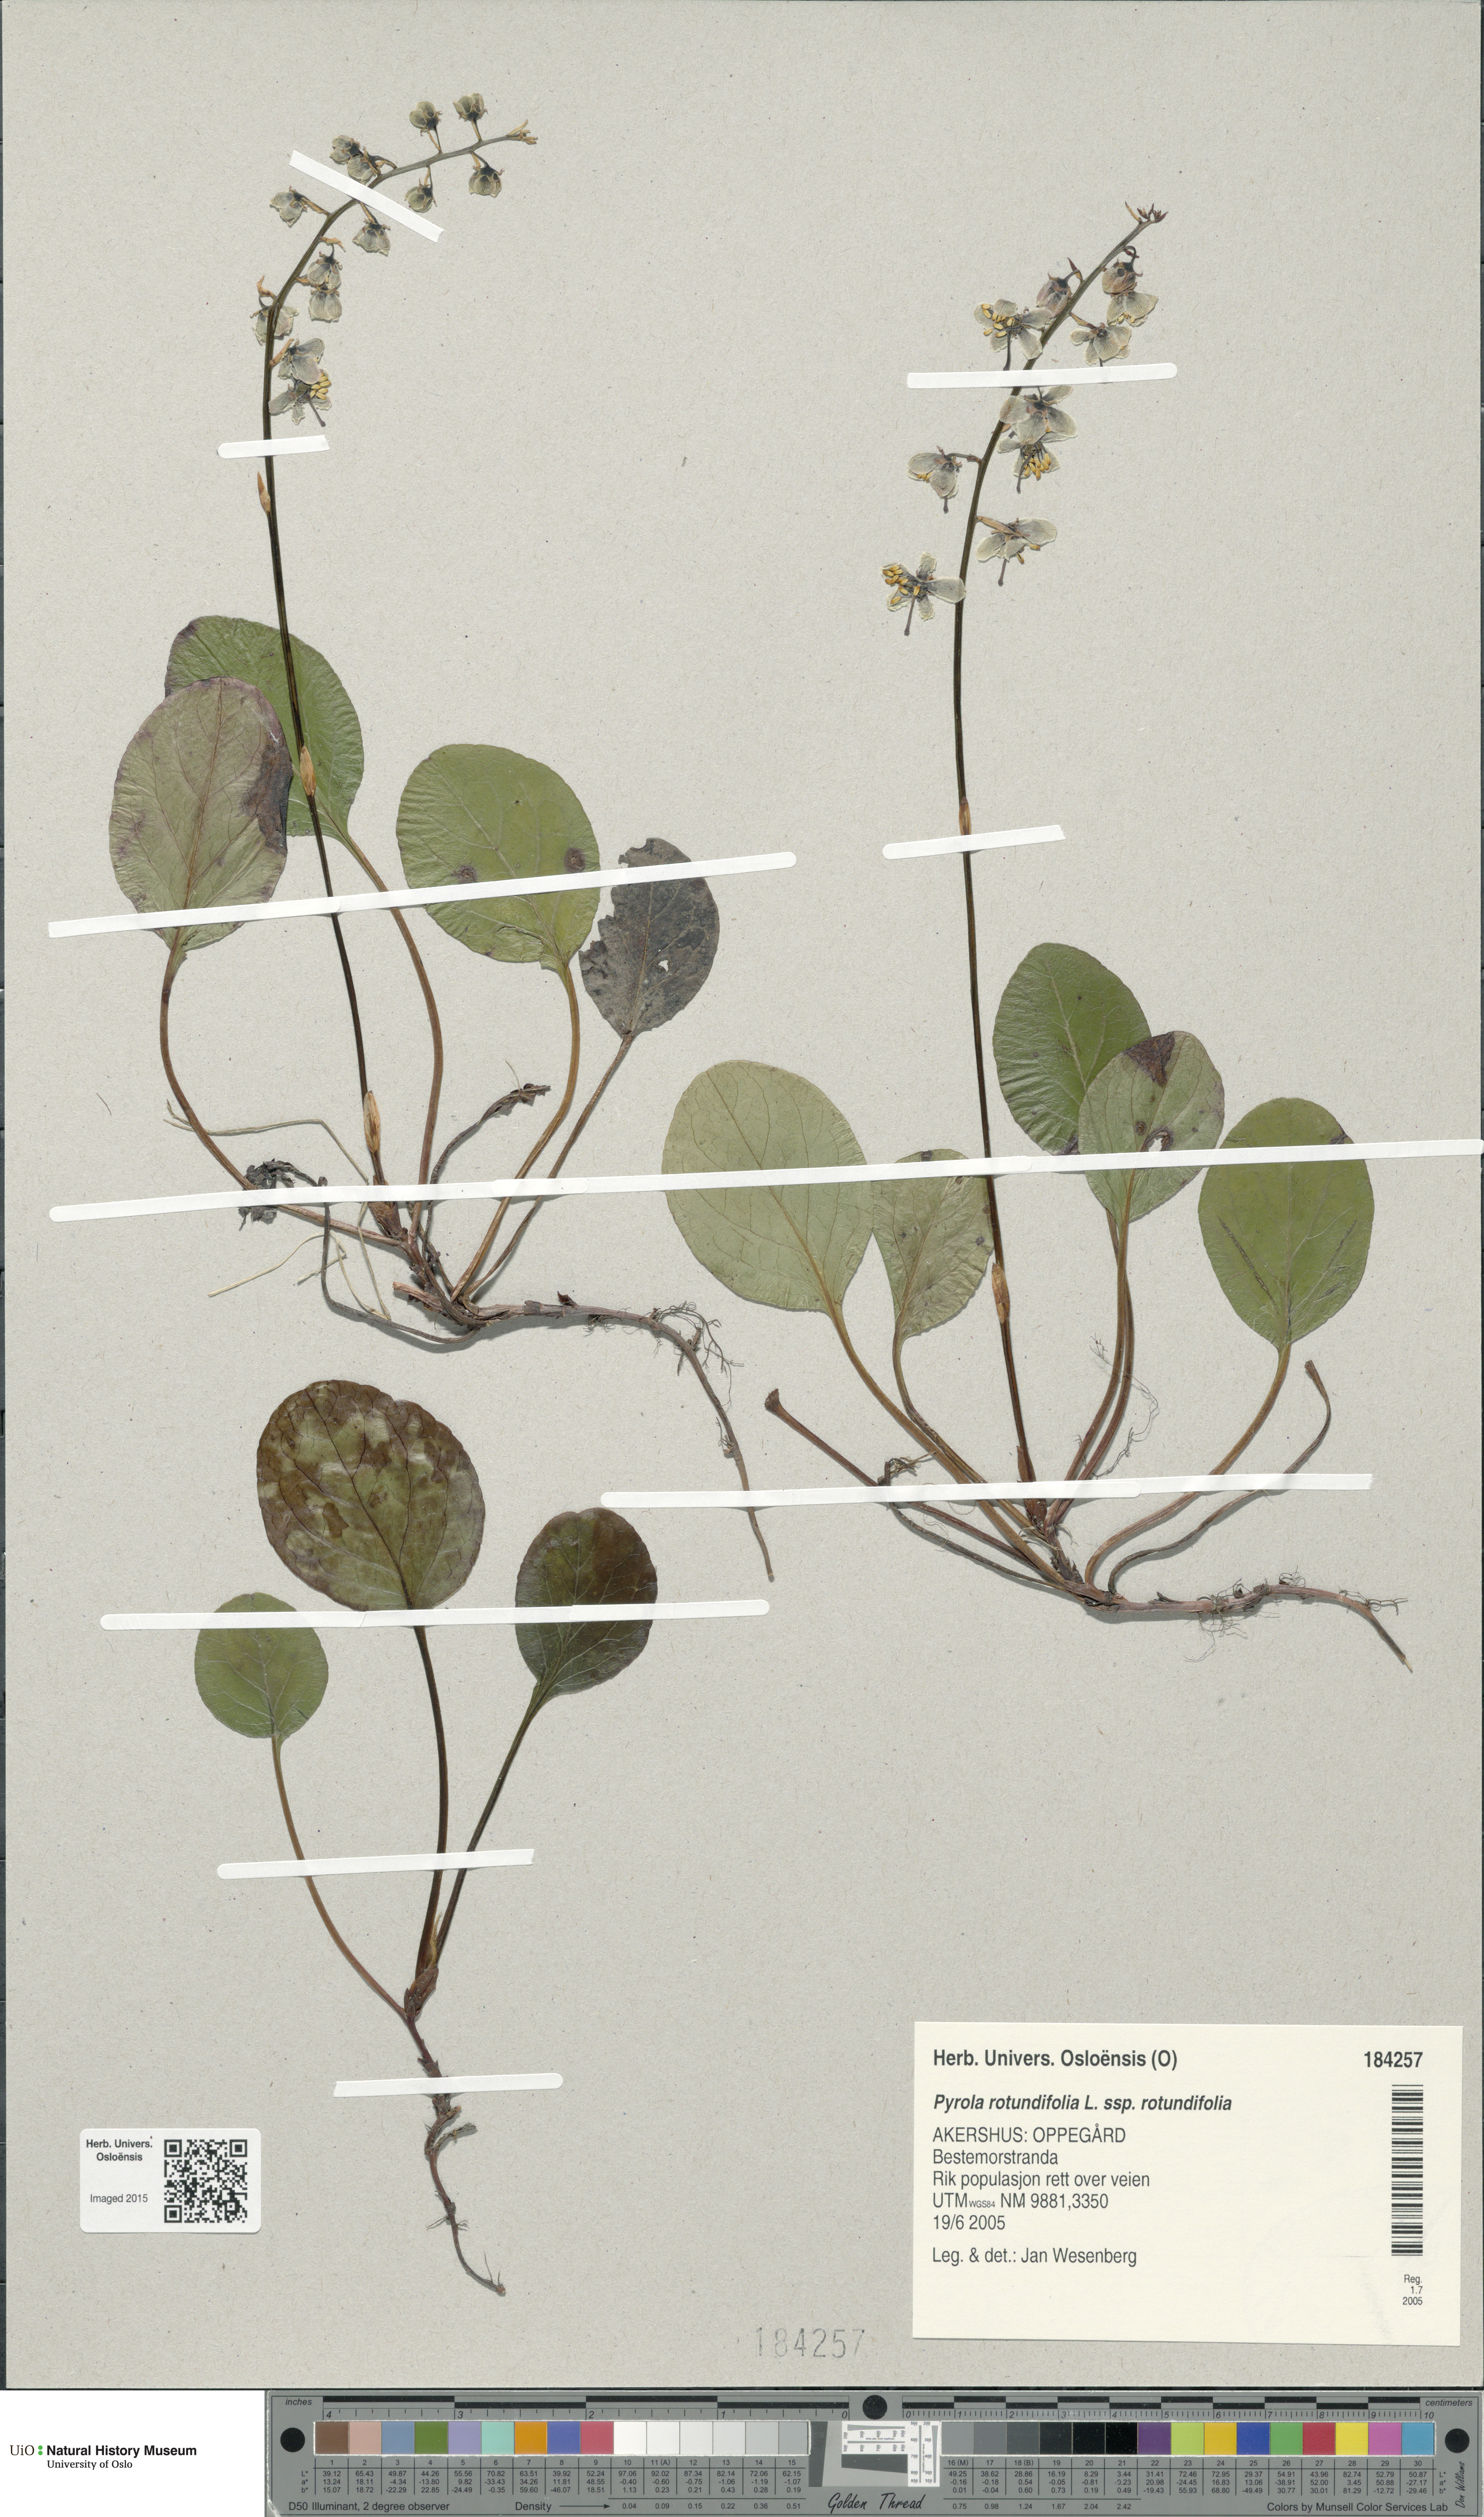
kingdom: Plantae
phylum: Tracheophyta
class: Magnoliopsida
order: Ericales
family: Ericaceae
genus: Pyrola
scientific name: Pyrola rotundifolia
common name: Round-leaved wintergreen
